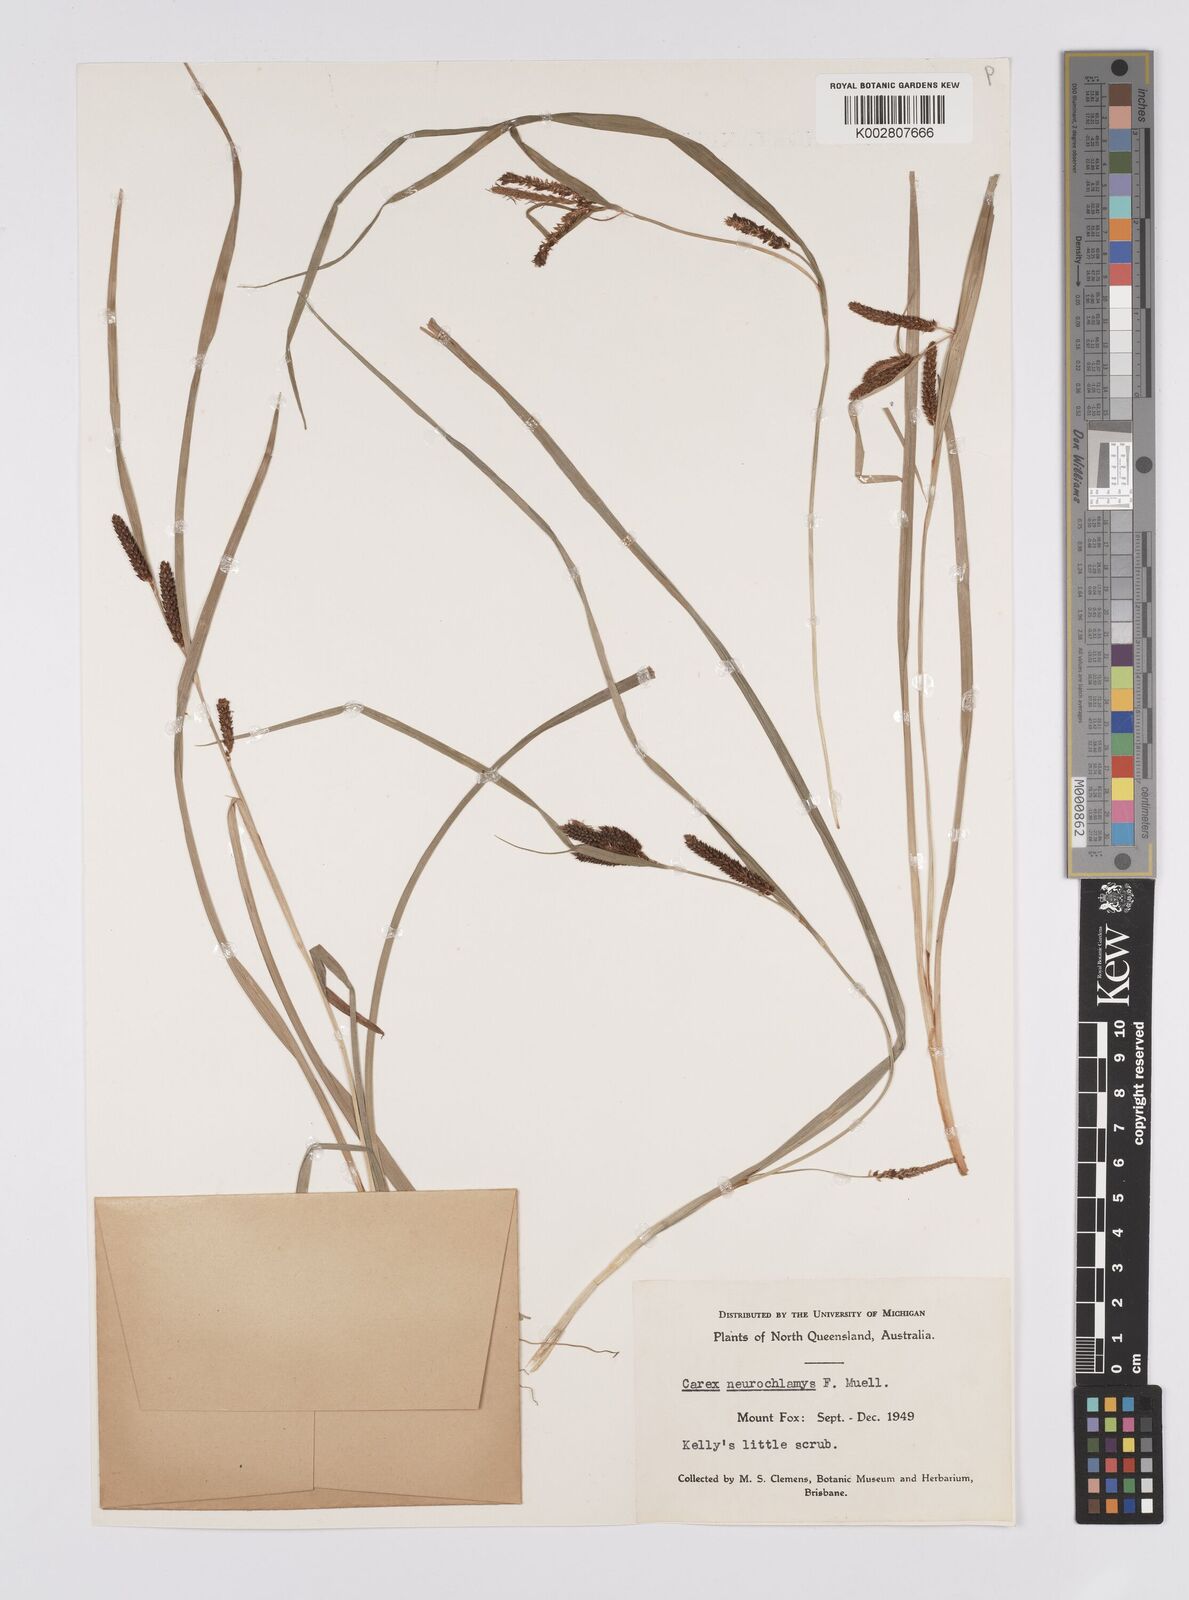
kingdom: Plantae
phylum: Tracheophyta
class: Liliopsida
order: Poales
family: Cyperaceae
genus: Carex
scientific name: Carex maculata
